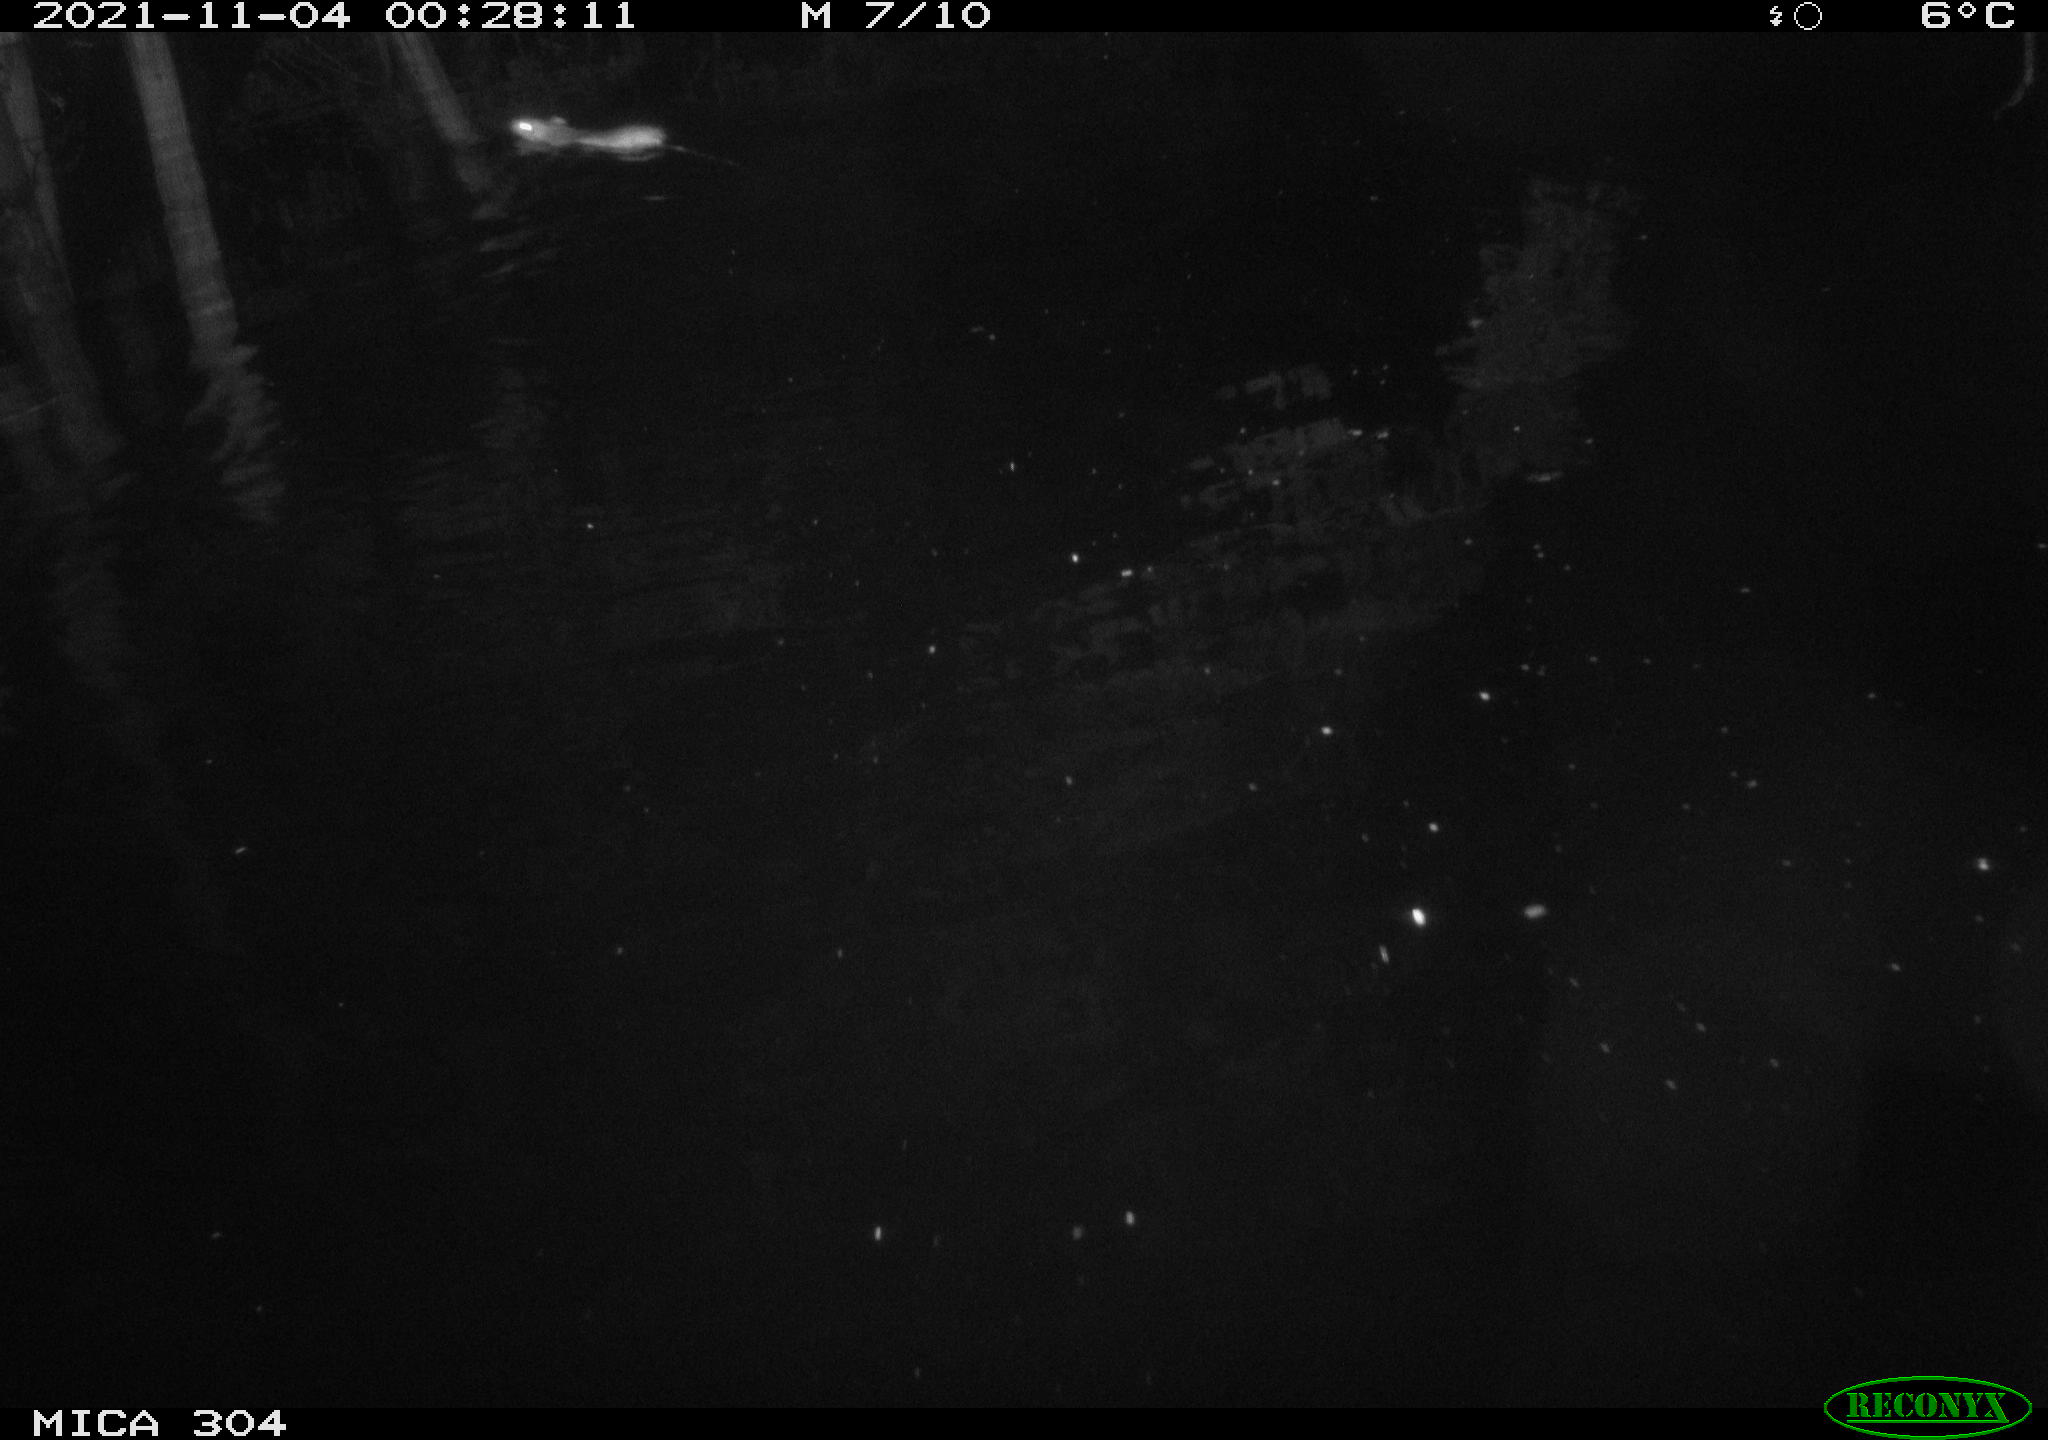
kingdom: Animalia
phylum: Chordata
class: Mammalia
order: Rodentia
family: Muridae
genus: Rattus
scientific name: Rattus norvegicus
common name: Brown rat
